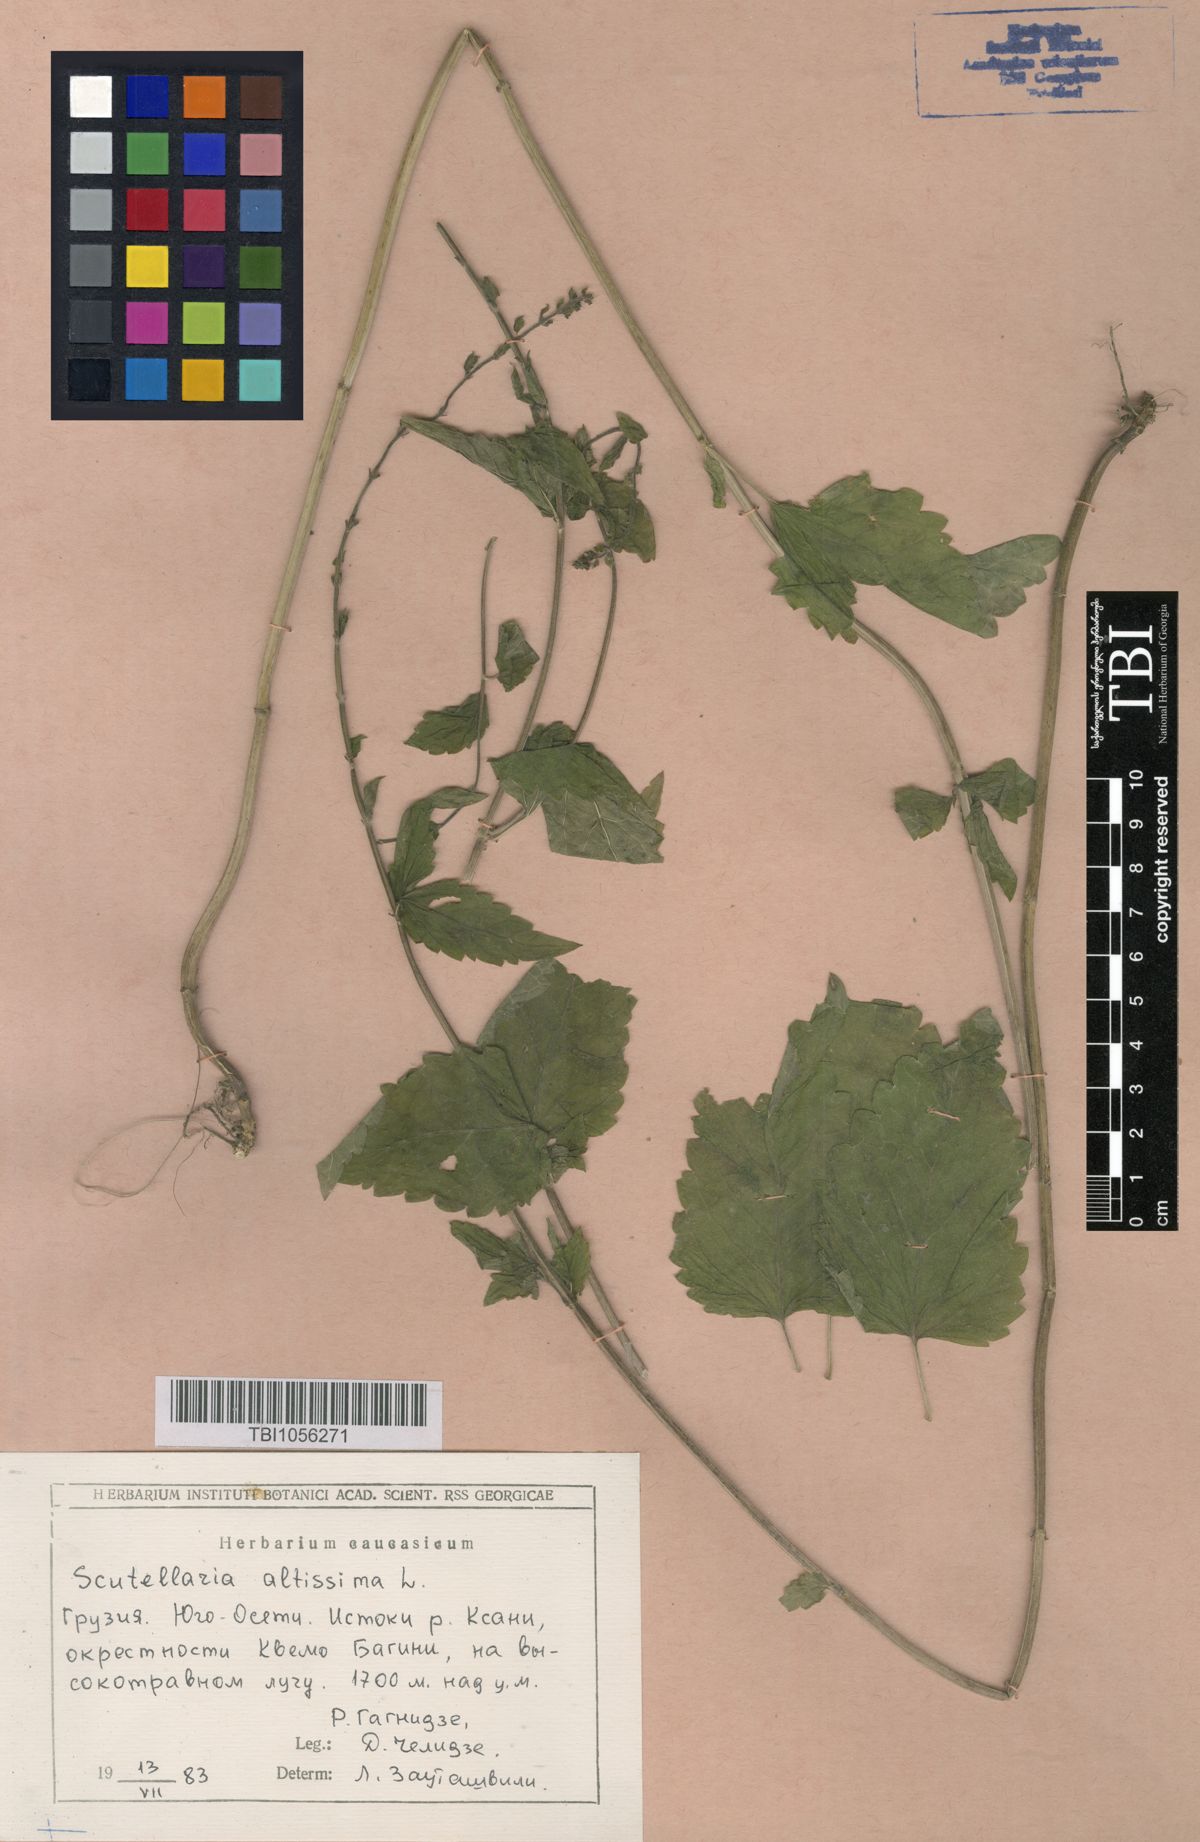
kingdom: Plantae
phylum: Tracheophyta
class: Magnoliopsida
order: Lamiales
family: Lamiaceae
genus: Scutellaria
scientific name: Scutellaria altissima
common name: Somerset skullcap
